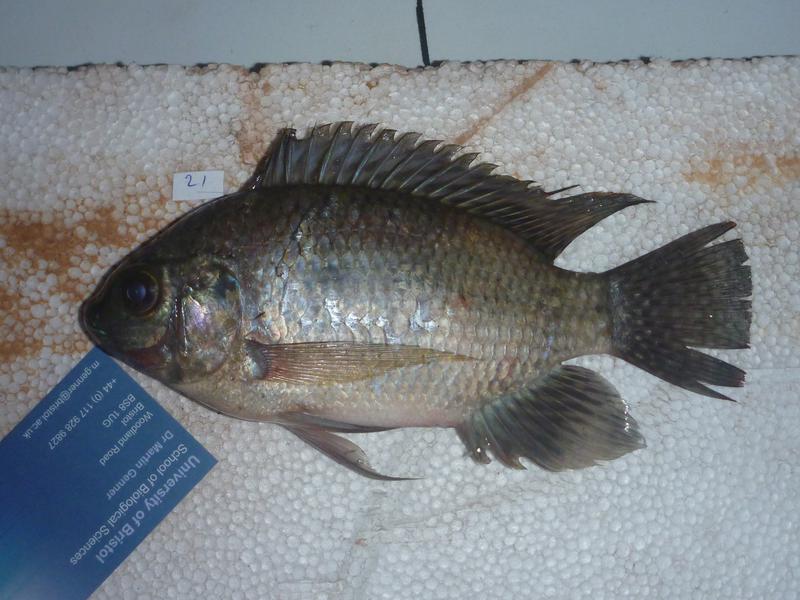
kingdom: Animalia
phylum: Chordata
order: Perciformes
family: Cichlidae
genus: Oreochromis
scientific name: Oreochromis upembae
